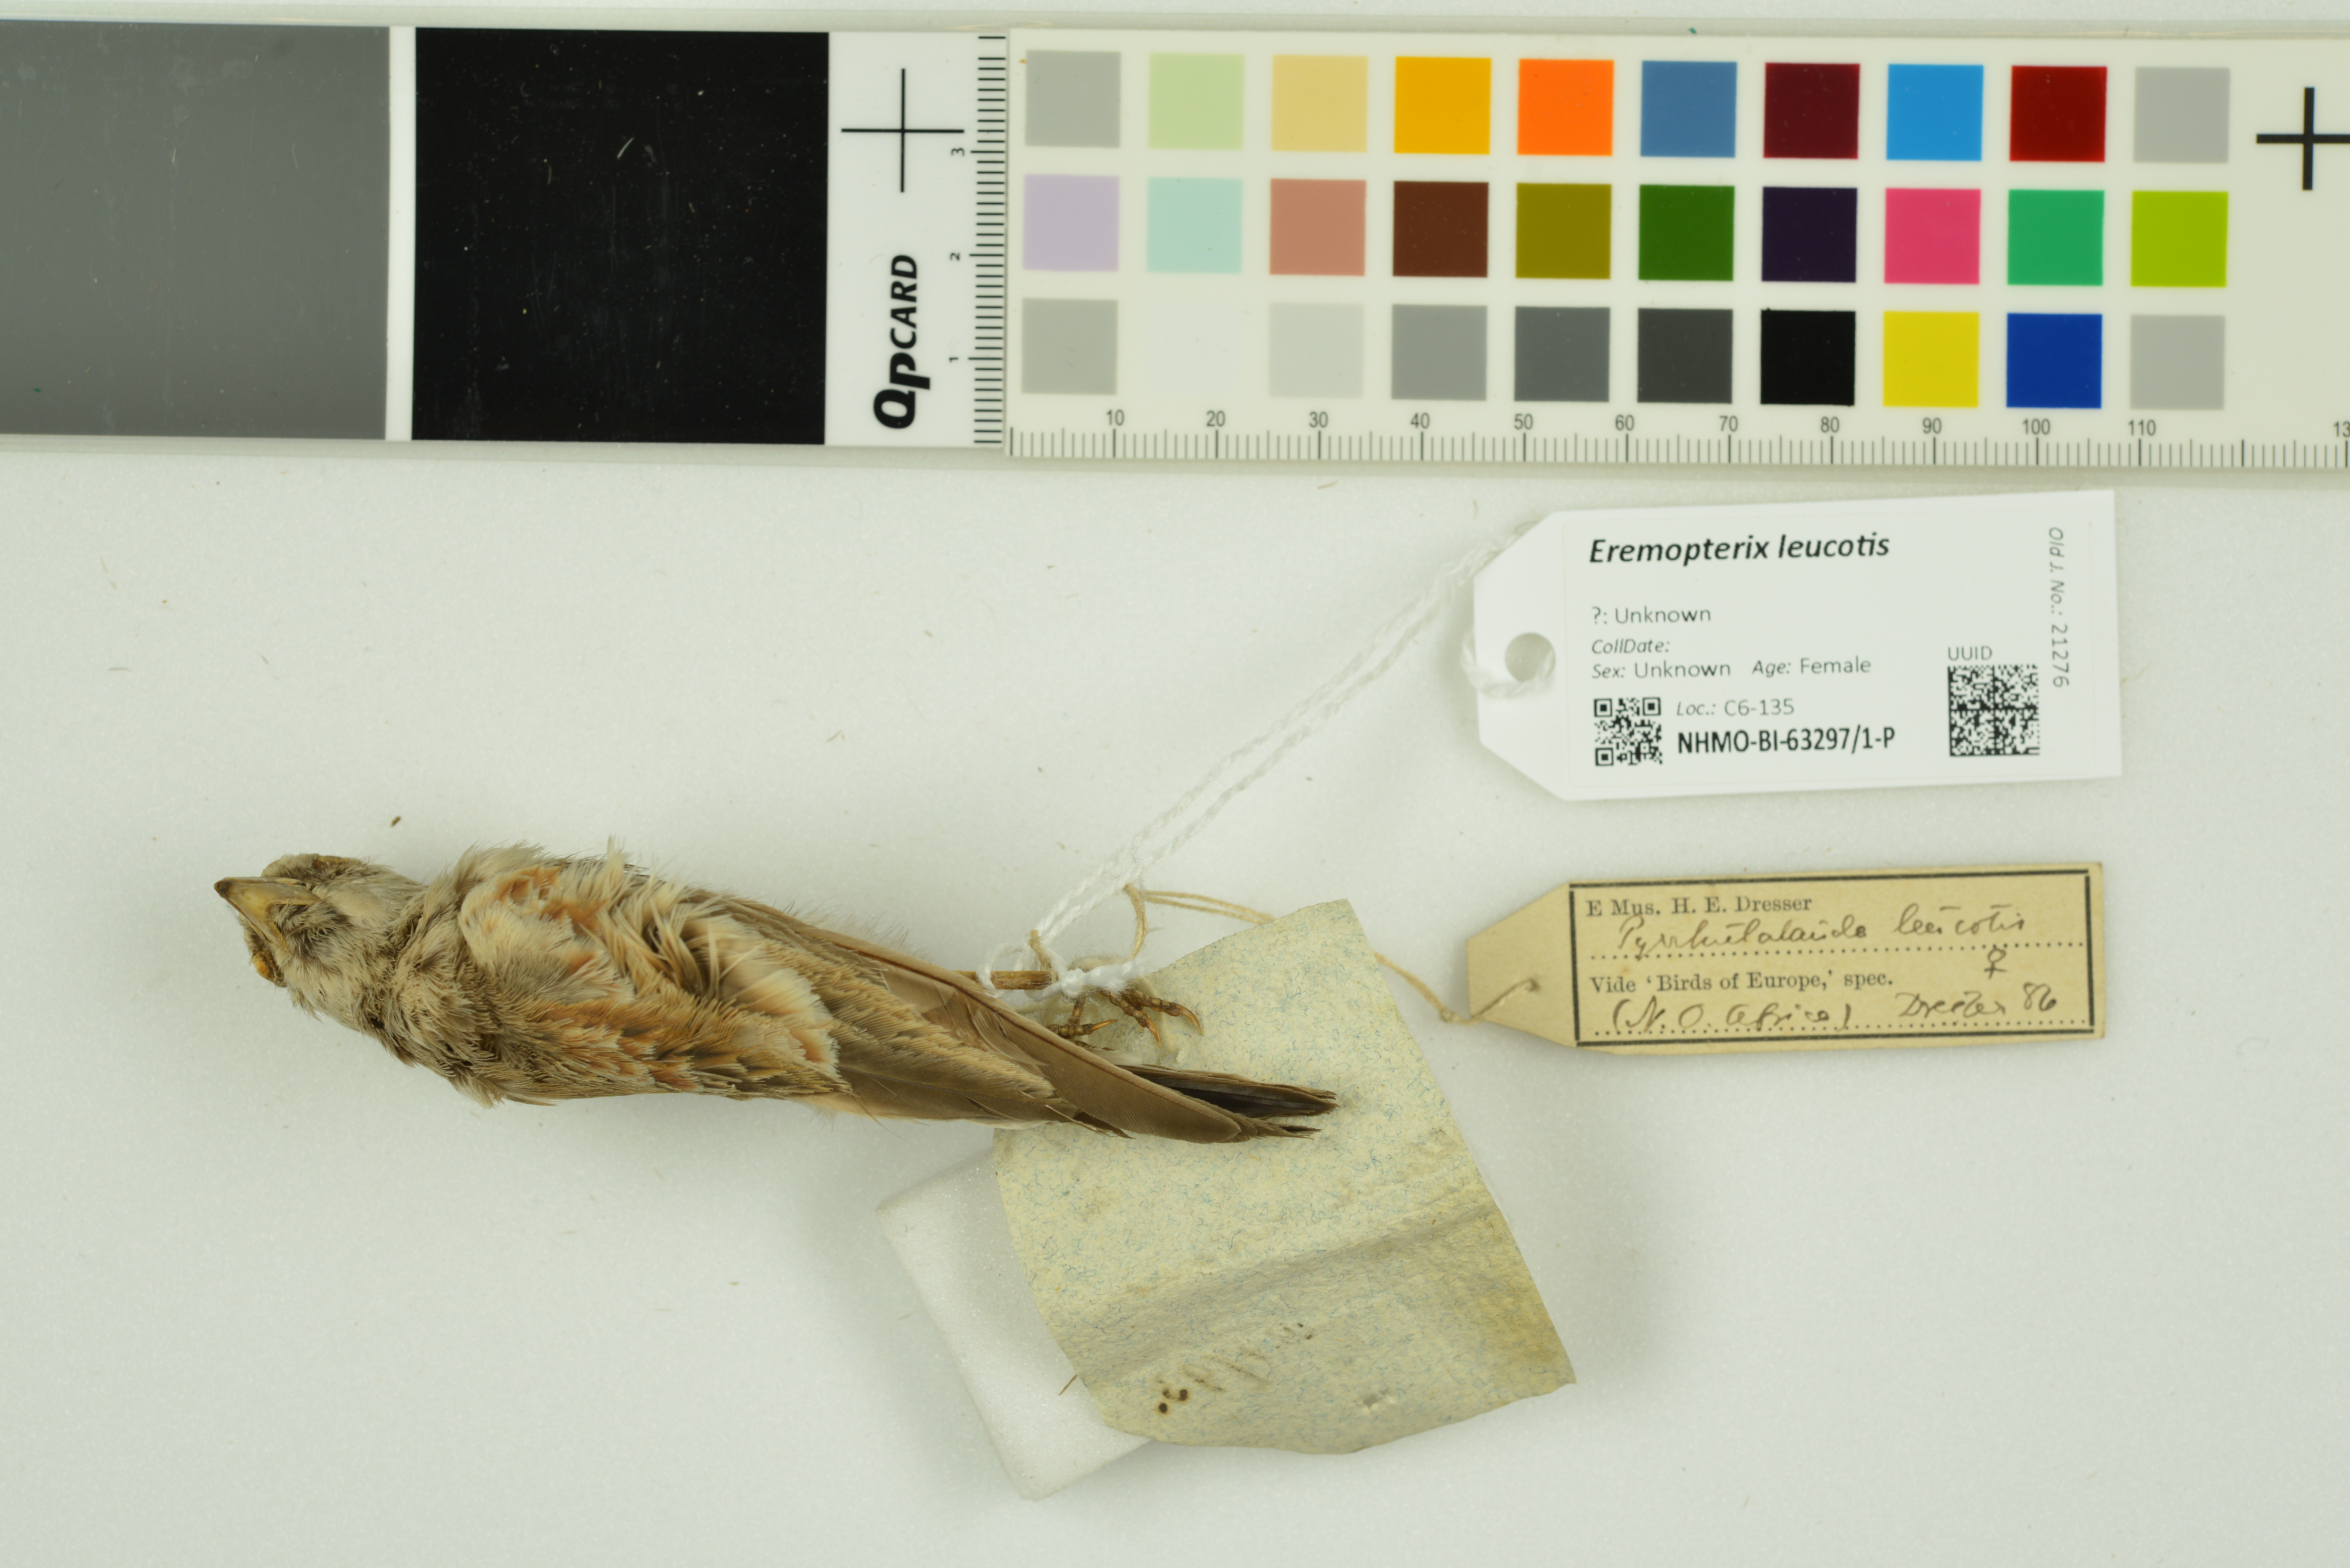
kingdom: Animalia
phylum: Chordata
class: Aves
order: Passeriformes
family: Alaudidae
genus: Eremopterix
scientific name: Eremopterix leucotis
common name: Chestnut-backed sparrow-lark
